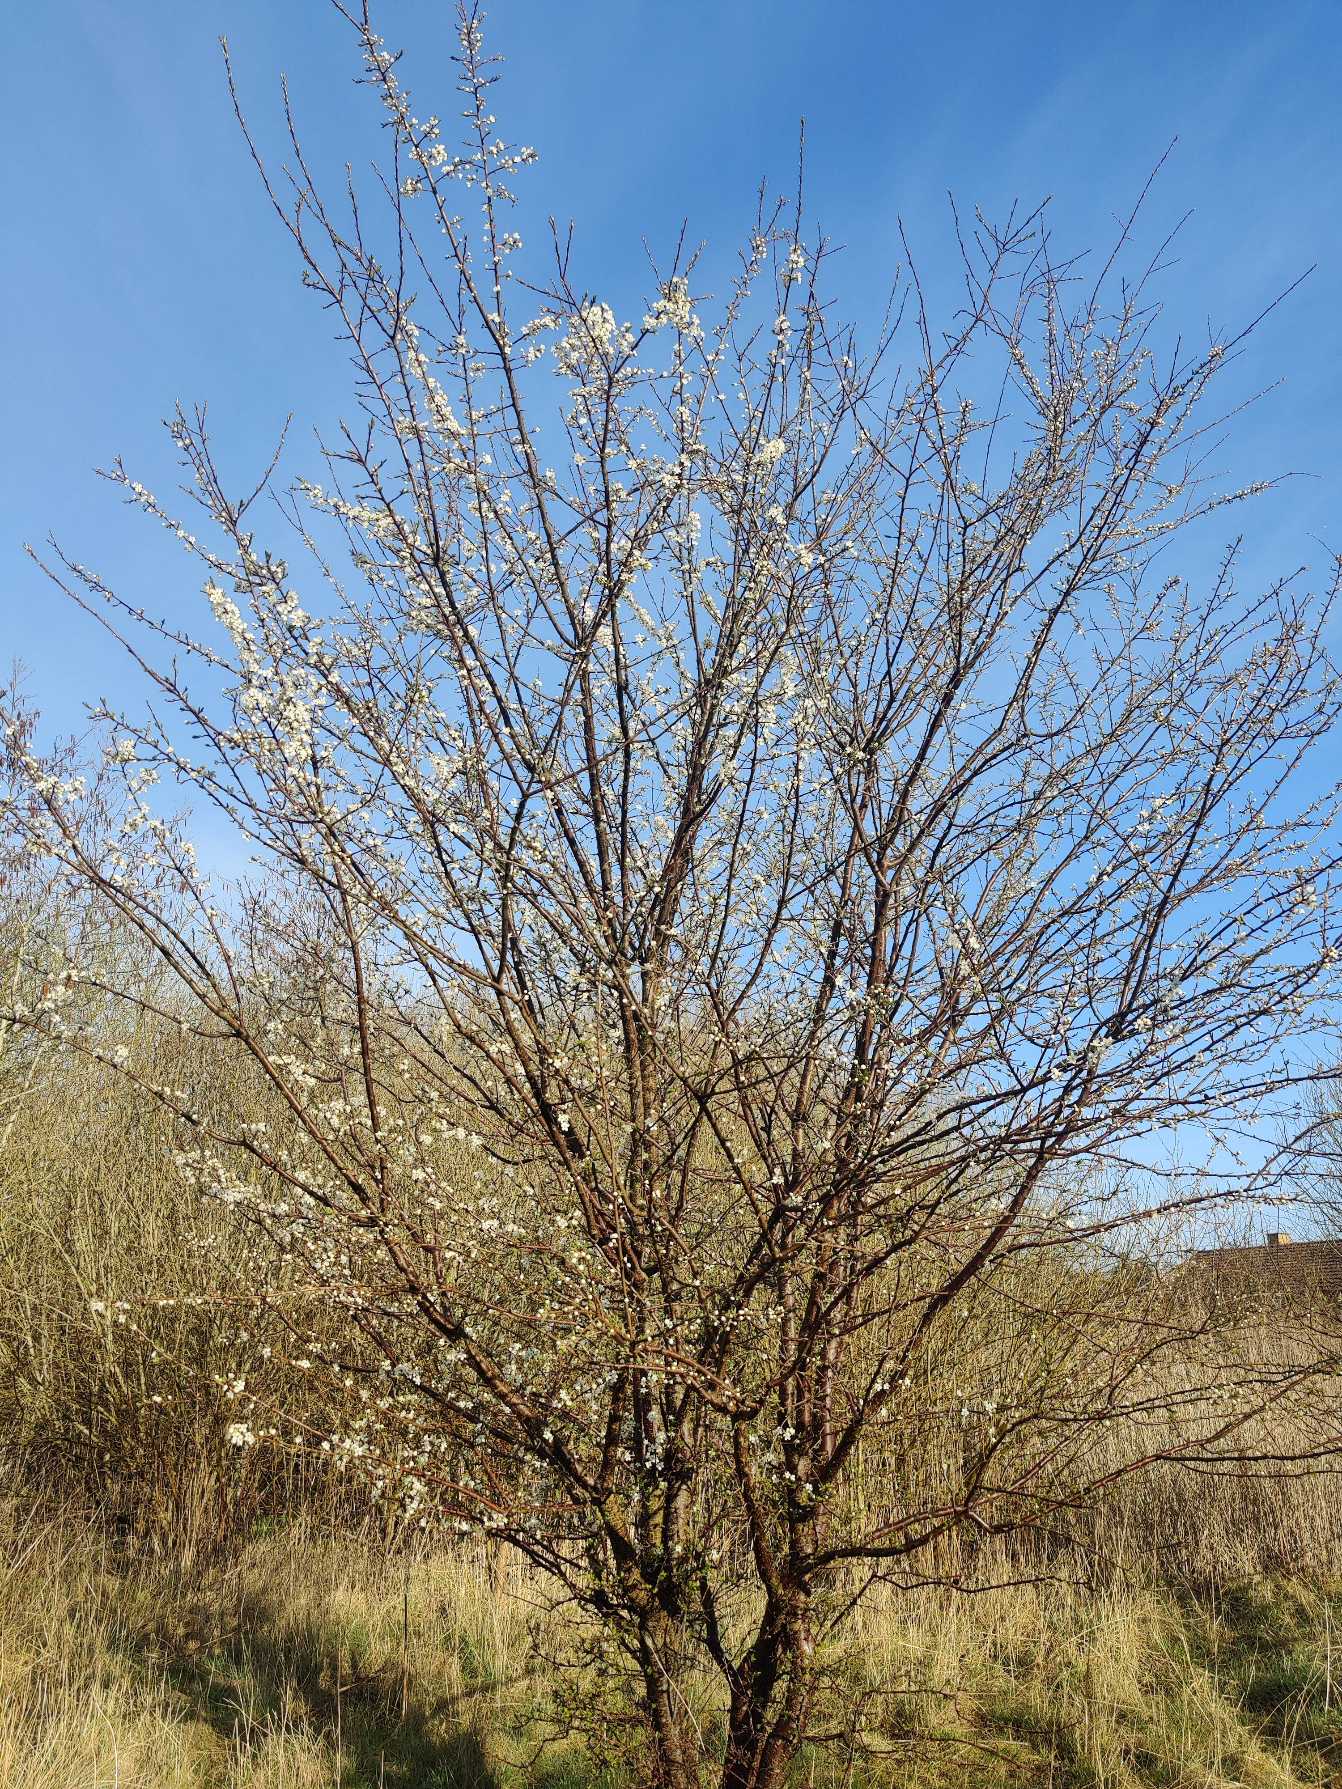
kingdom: Plantae
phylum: Tracheophyta
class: Magnoliopsida
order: Rosales
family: Rosaceae
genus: Prunus
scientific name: Prunus cerasifera
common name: Mirabel
